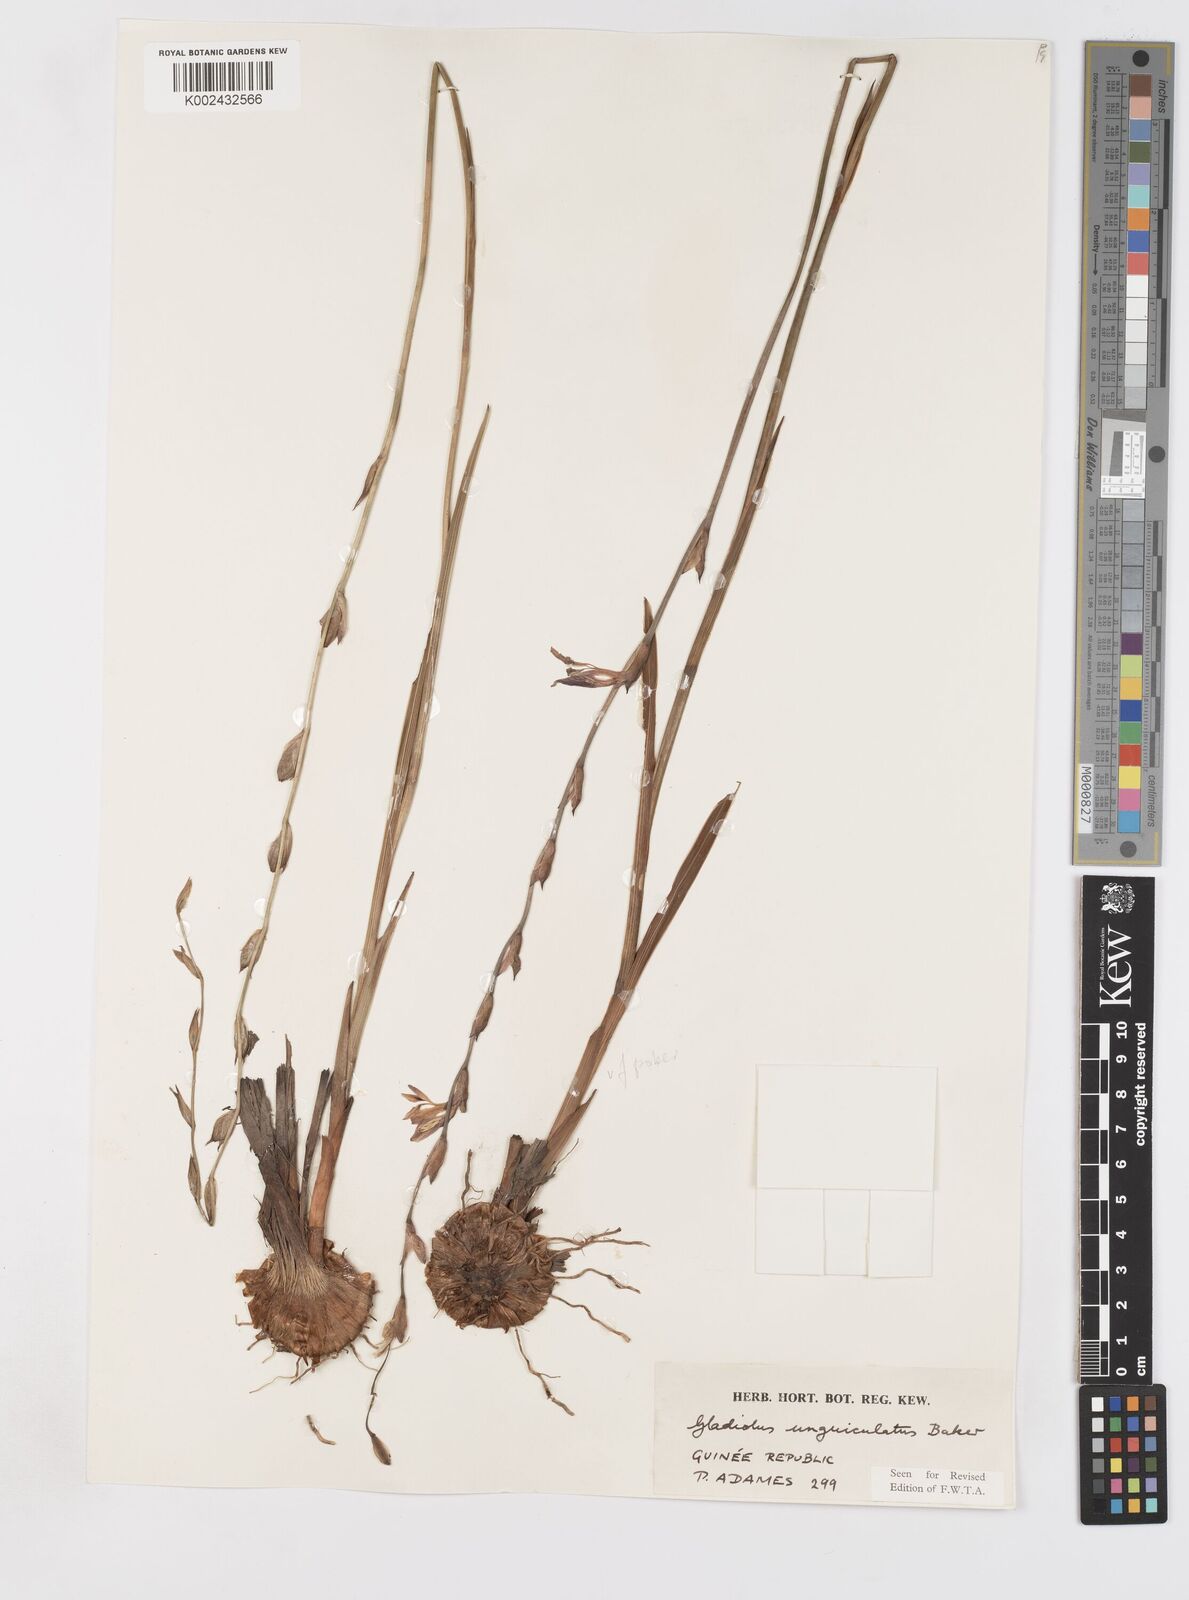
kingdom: Plantae
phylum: Tracheophyta
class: Liliopsida
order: Asparagales
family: Iridaceae
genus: Gladiolus
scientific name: Gladiolus unguiculatus
